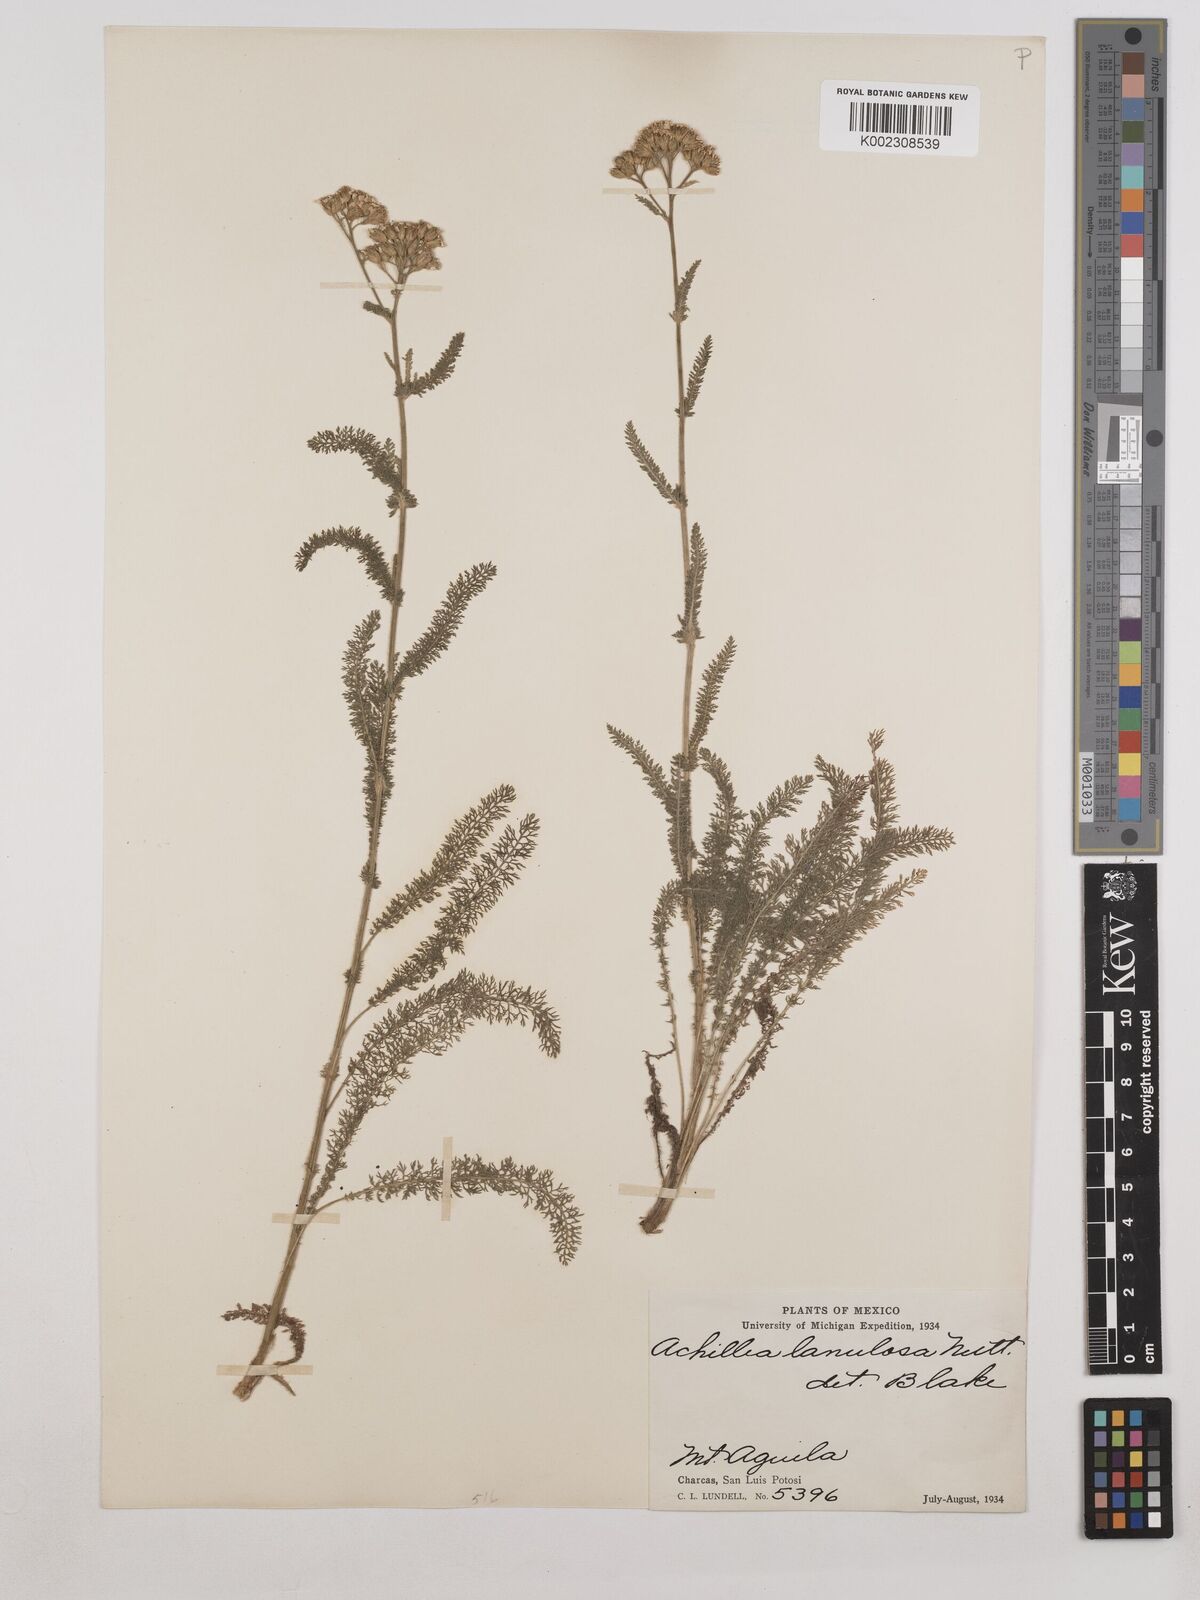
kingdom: Plantae
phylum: Tracheophyta
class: Magnoliopsida
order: Asterales
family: Asteraceae
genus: Achillea
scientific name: Achillea millefolium
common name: Yarrow
